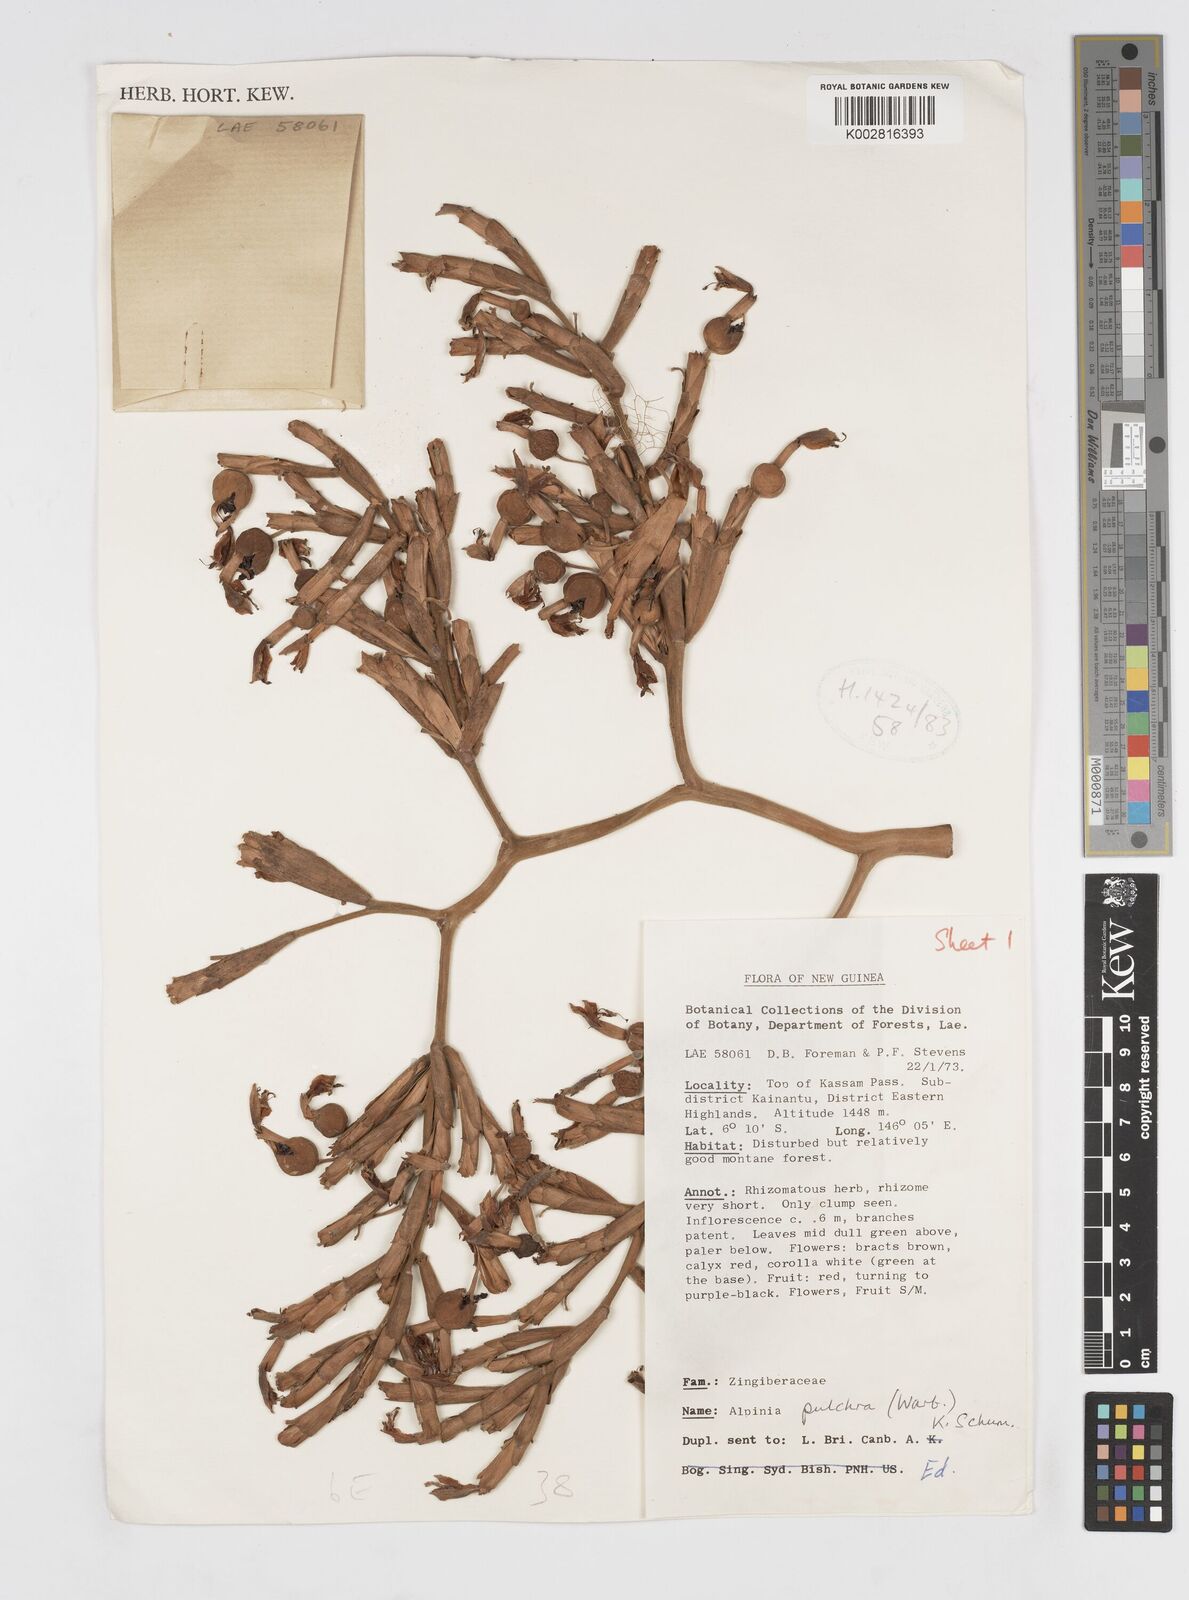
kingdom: Plantae
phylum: Tracheophyta
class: Liliopsida
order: Zingiberales
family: Zingiberaceae
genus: Alpinia
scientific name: Alpinia pulchra
